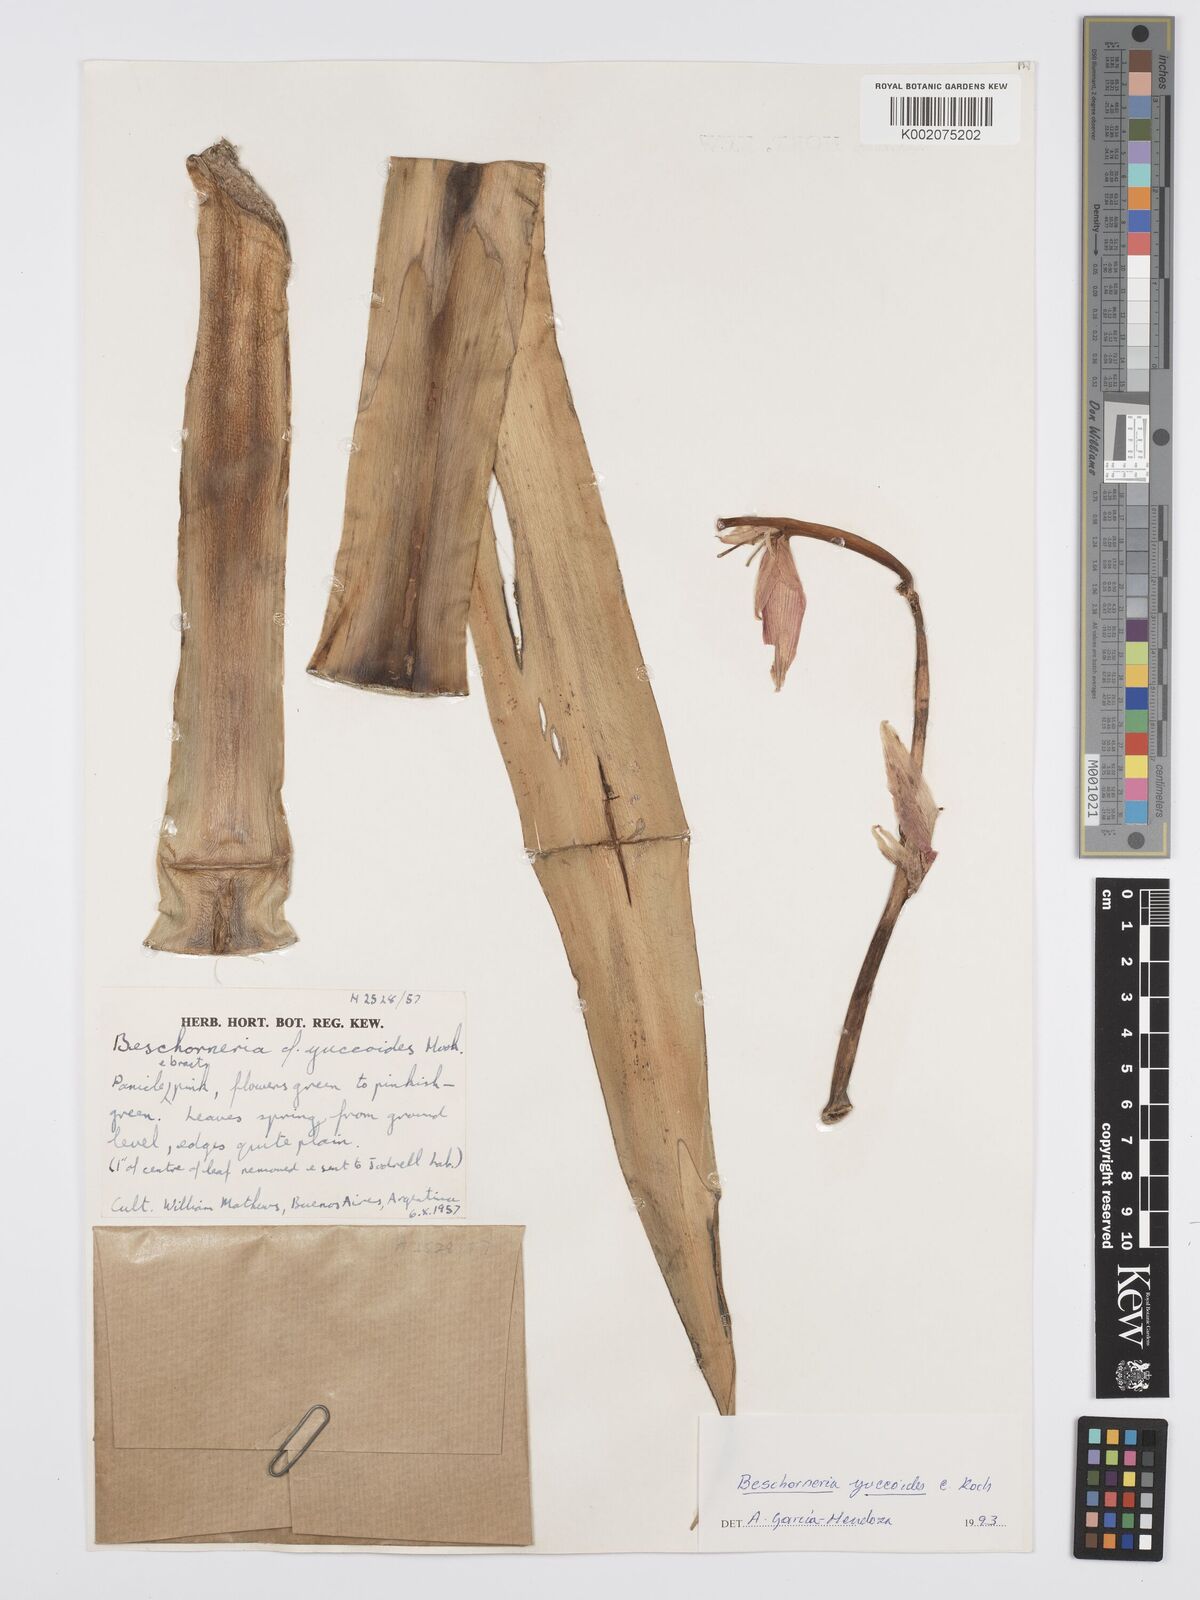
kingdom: Plantae
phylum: Tracheophyta
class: Liliopsida
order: Asparagales
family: Asparagaceae
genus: Beschorneria
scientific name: Beschorneria yuccoides
